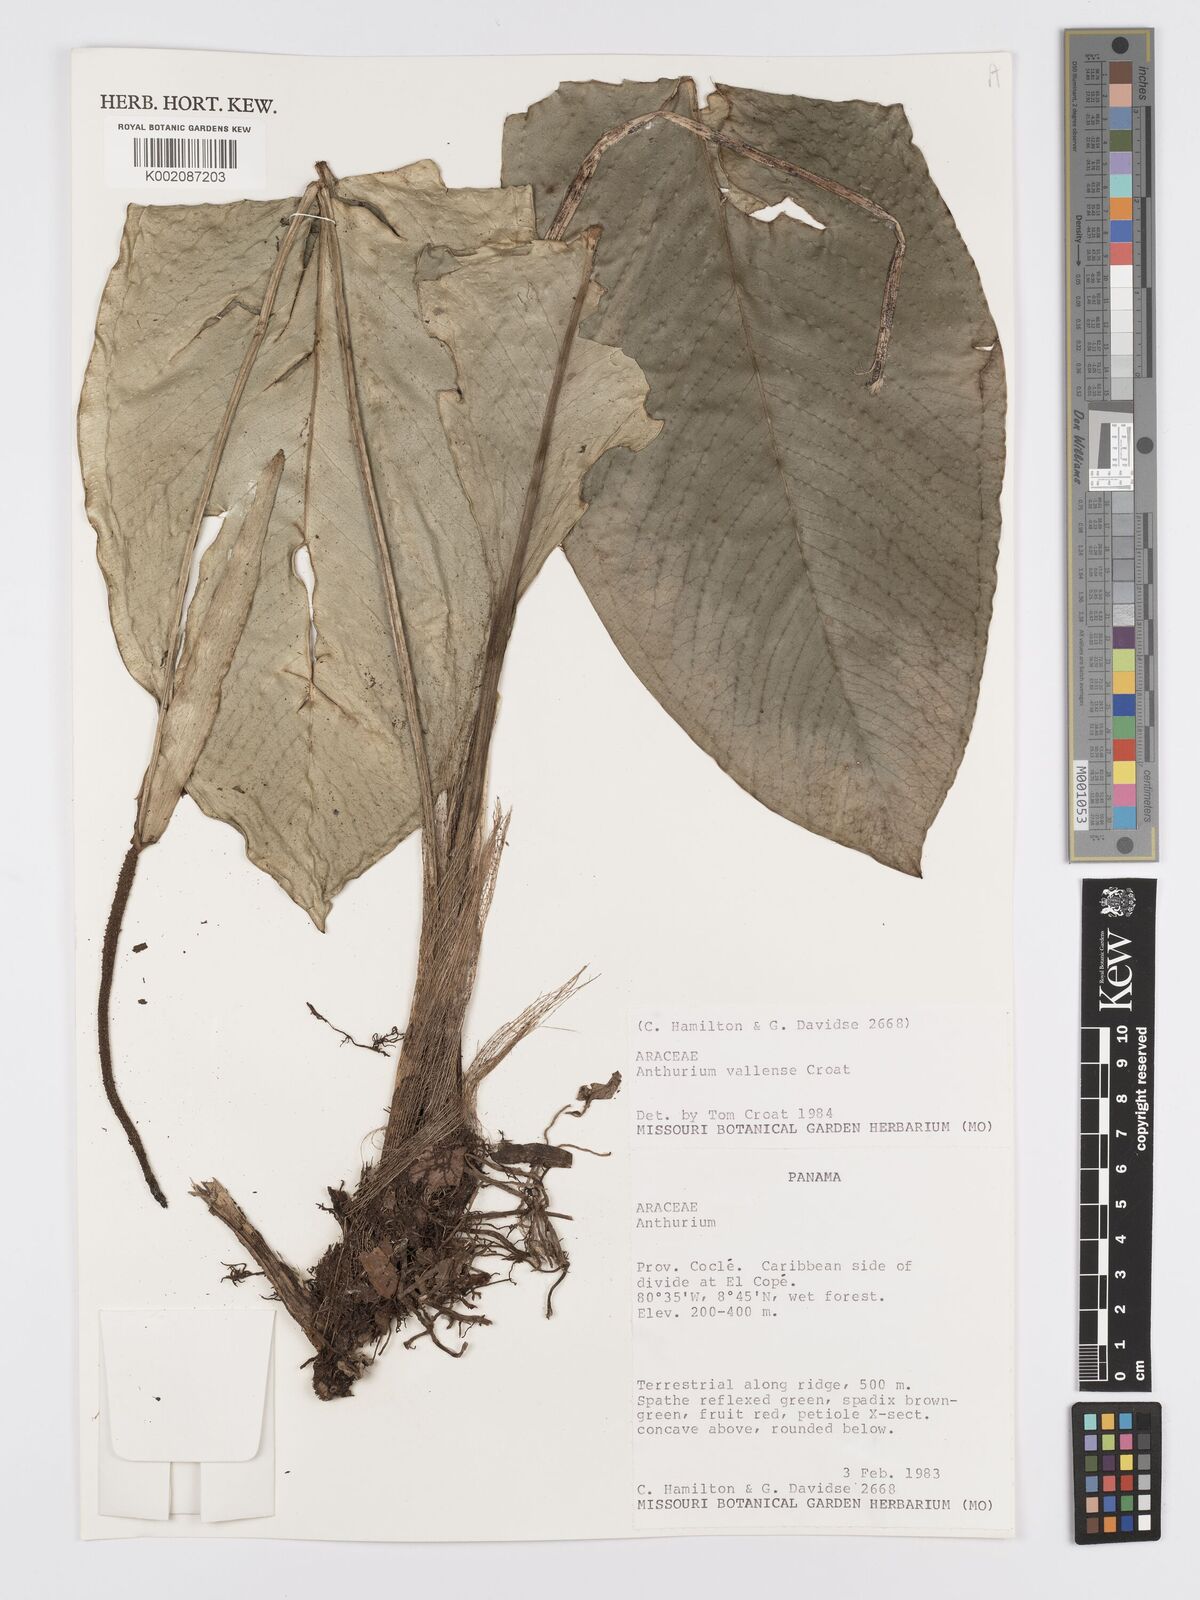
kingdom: Plantae
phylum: Tracheophyta
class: Liliopsida
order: Alismatales
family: Araceae
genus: Anthurium
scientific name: Anthurium vallense
